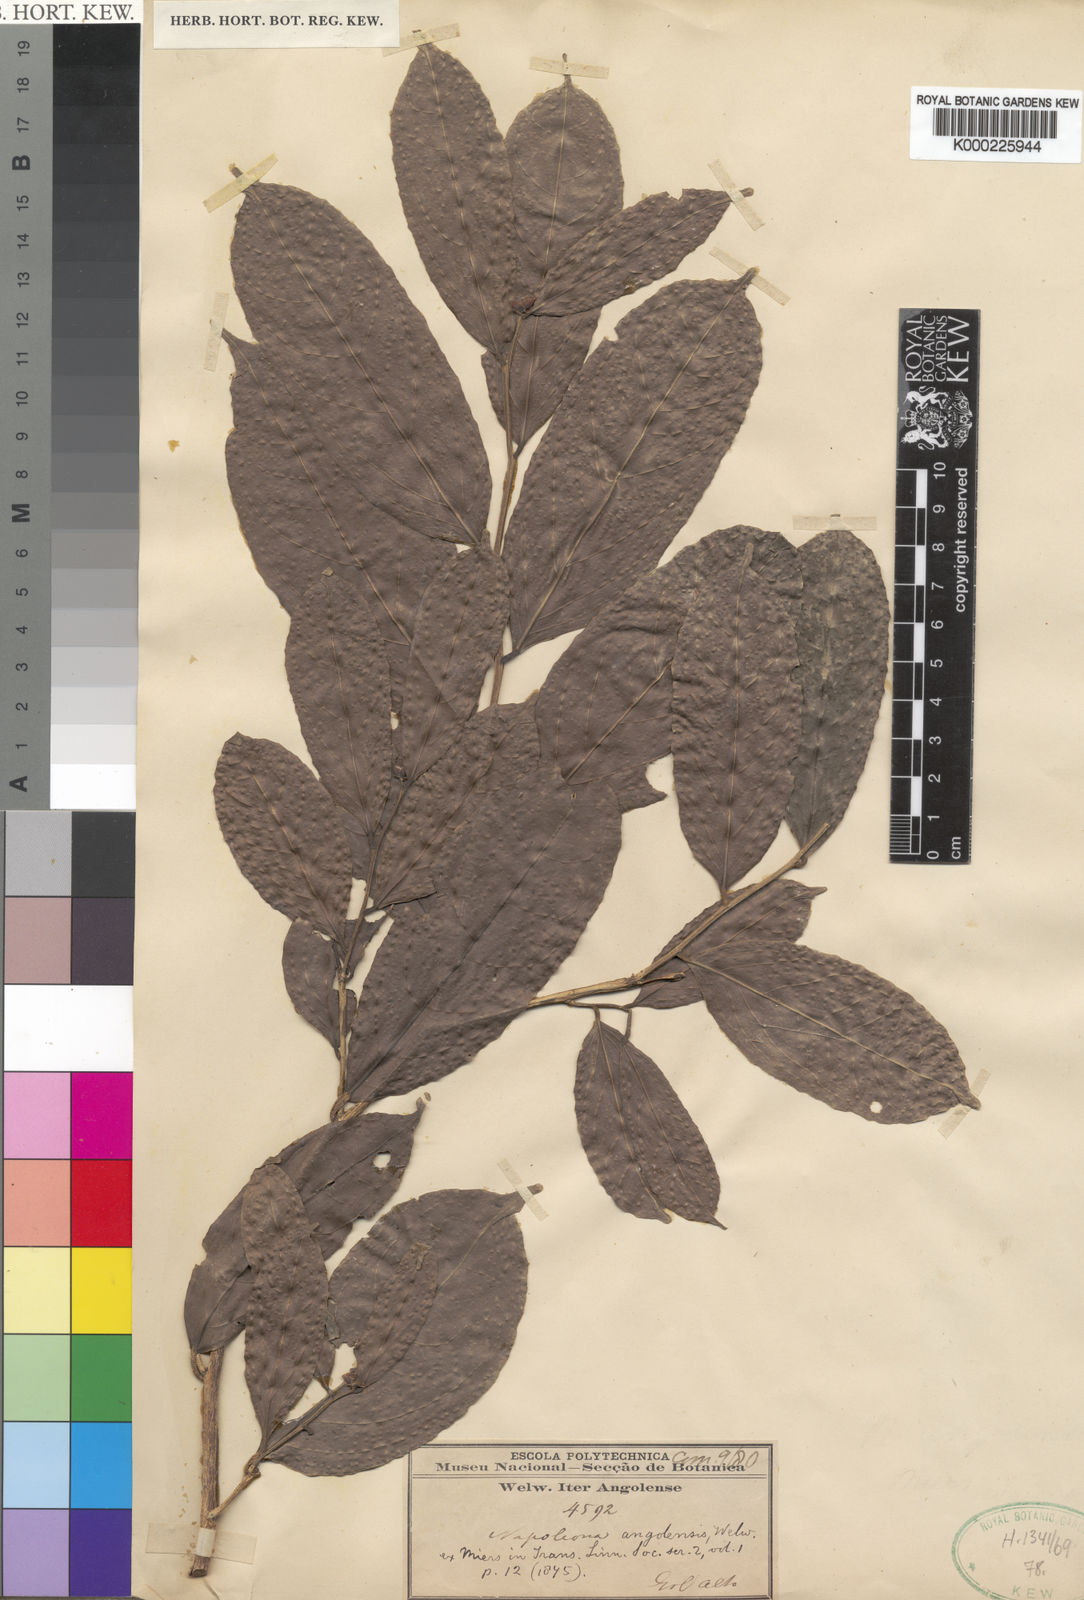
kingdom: Plantae
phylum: Tracheophyta
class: Magnoliopsida
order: Ericales
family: Lecythidaceae
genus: Napoleonaea
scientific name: Napoleonaea angolensis
